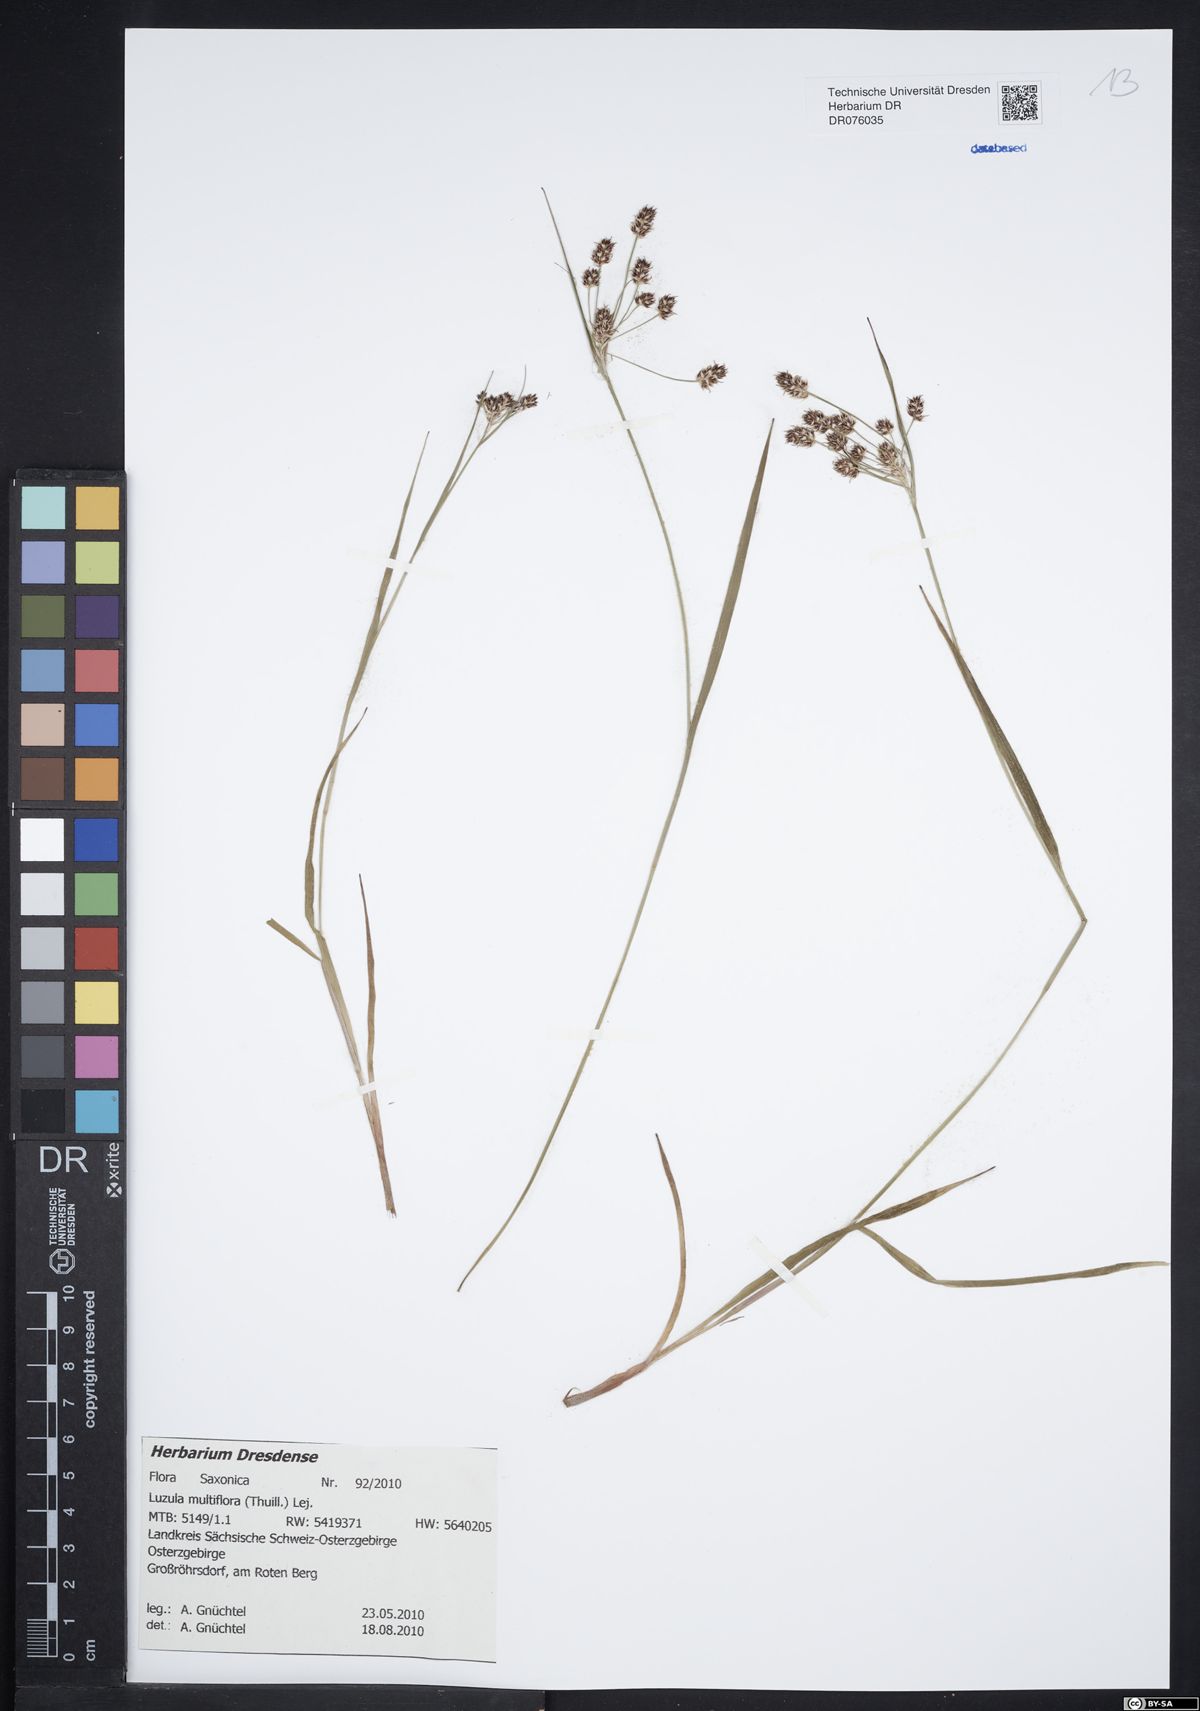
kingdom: Plantae
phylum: Tracheophyta
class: Liliopsida
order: Poales
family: Juncaceae
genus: Luzula
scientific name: Luzula multiflora
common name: Heath wood-rush
